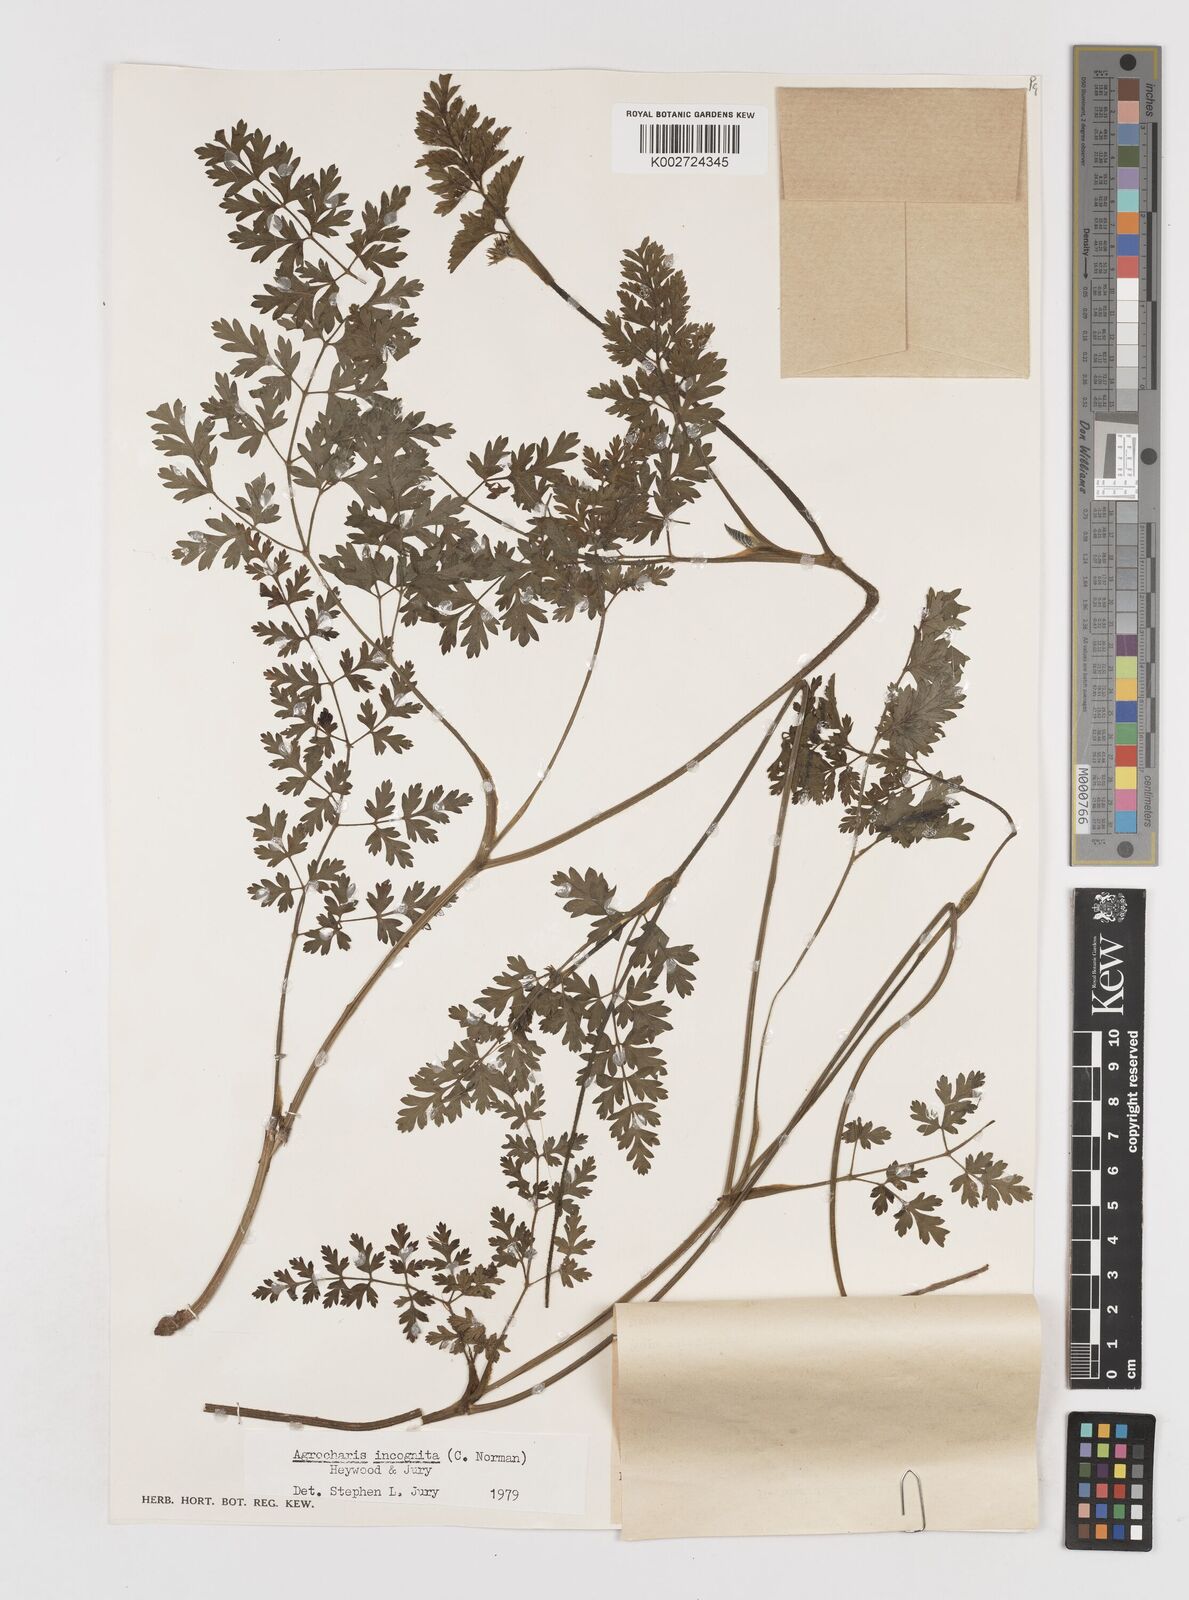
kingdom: Plantae
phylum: Tracheophyta
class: Magnoliopsida
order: Apiales
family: Apiaceae
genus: Daucus
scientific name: Daucus incognitus
